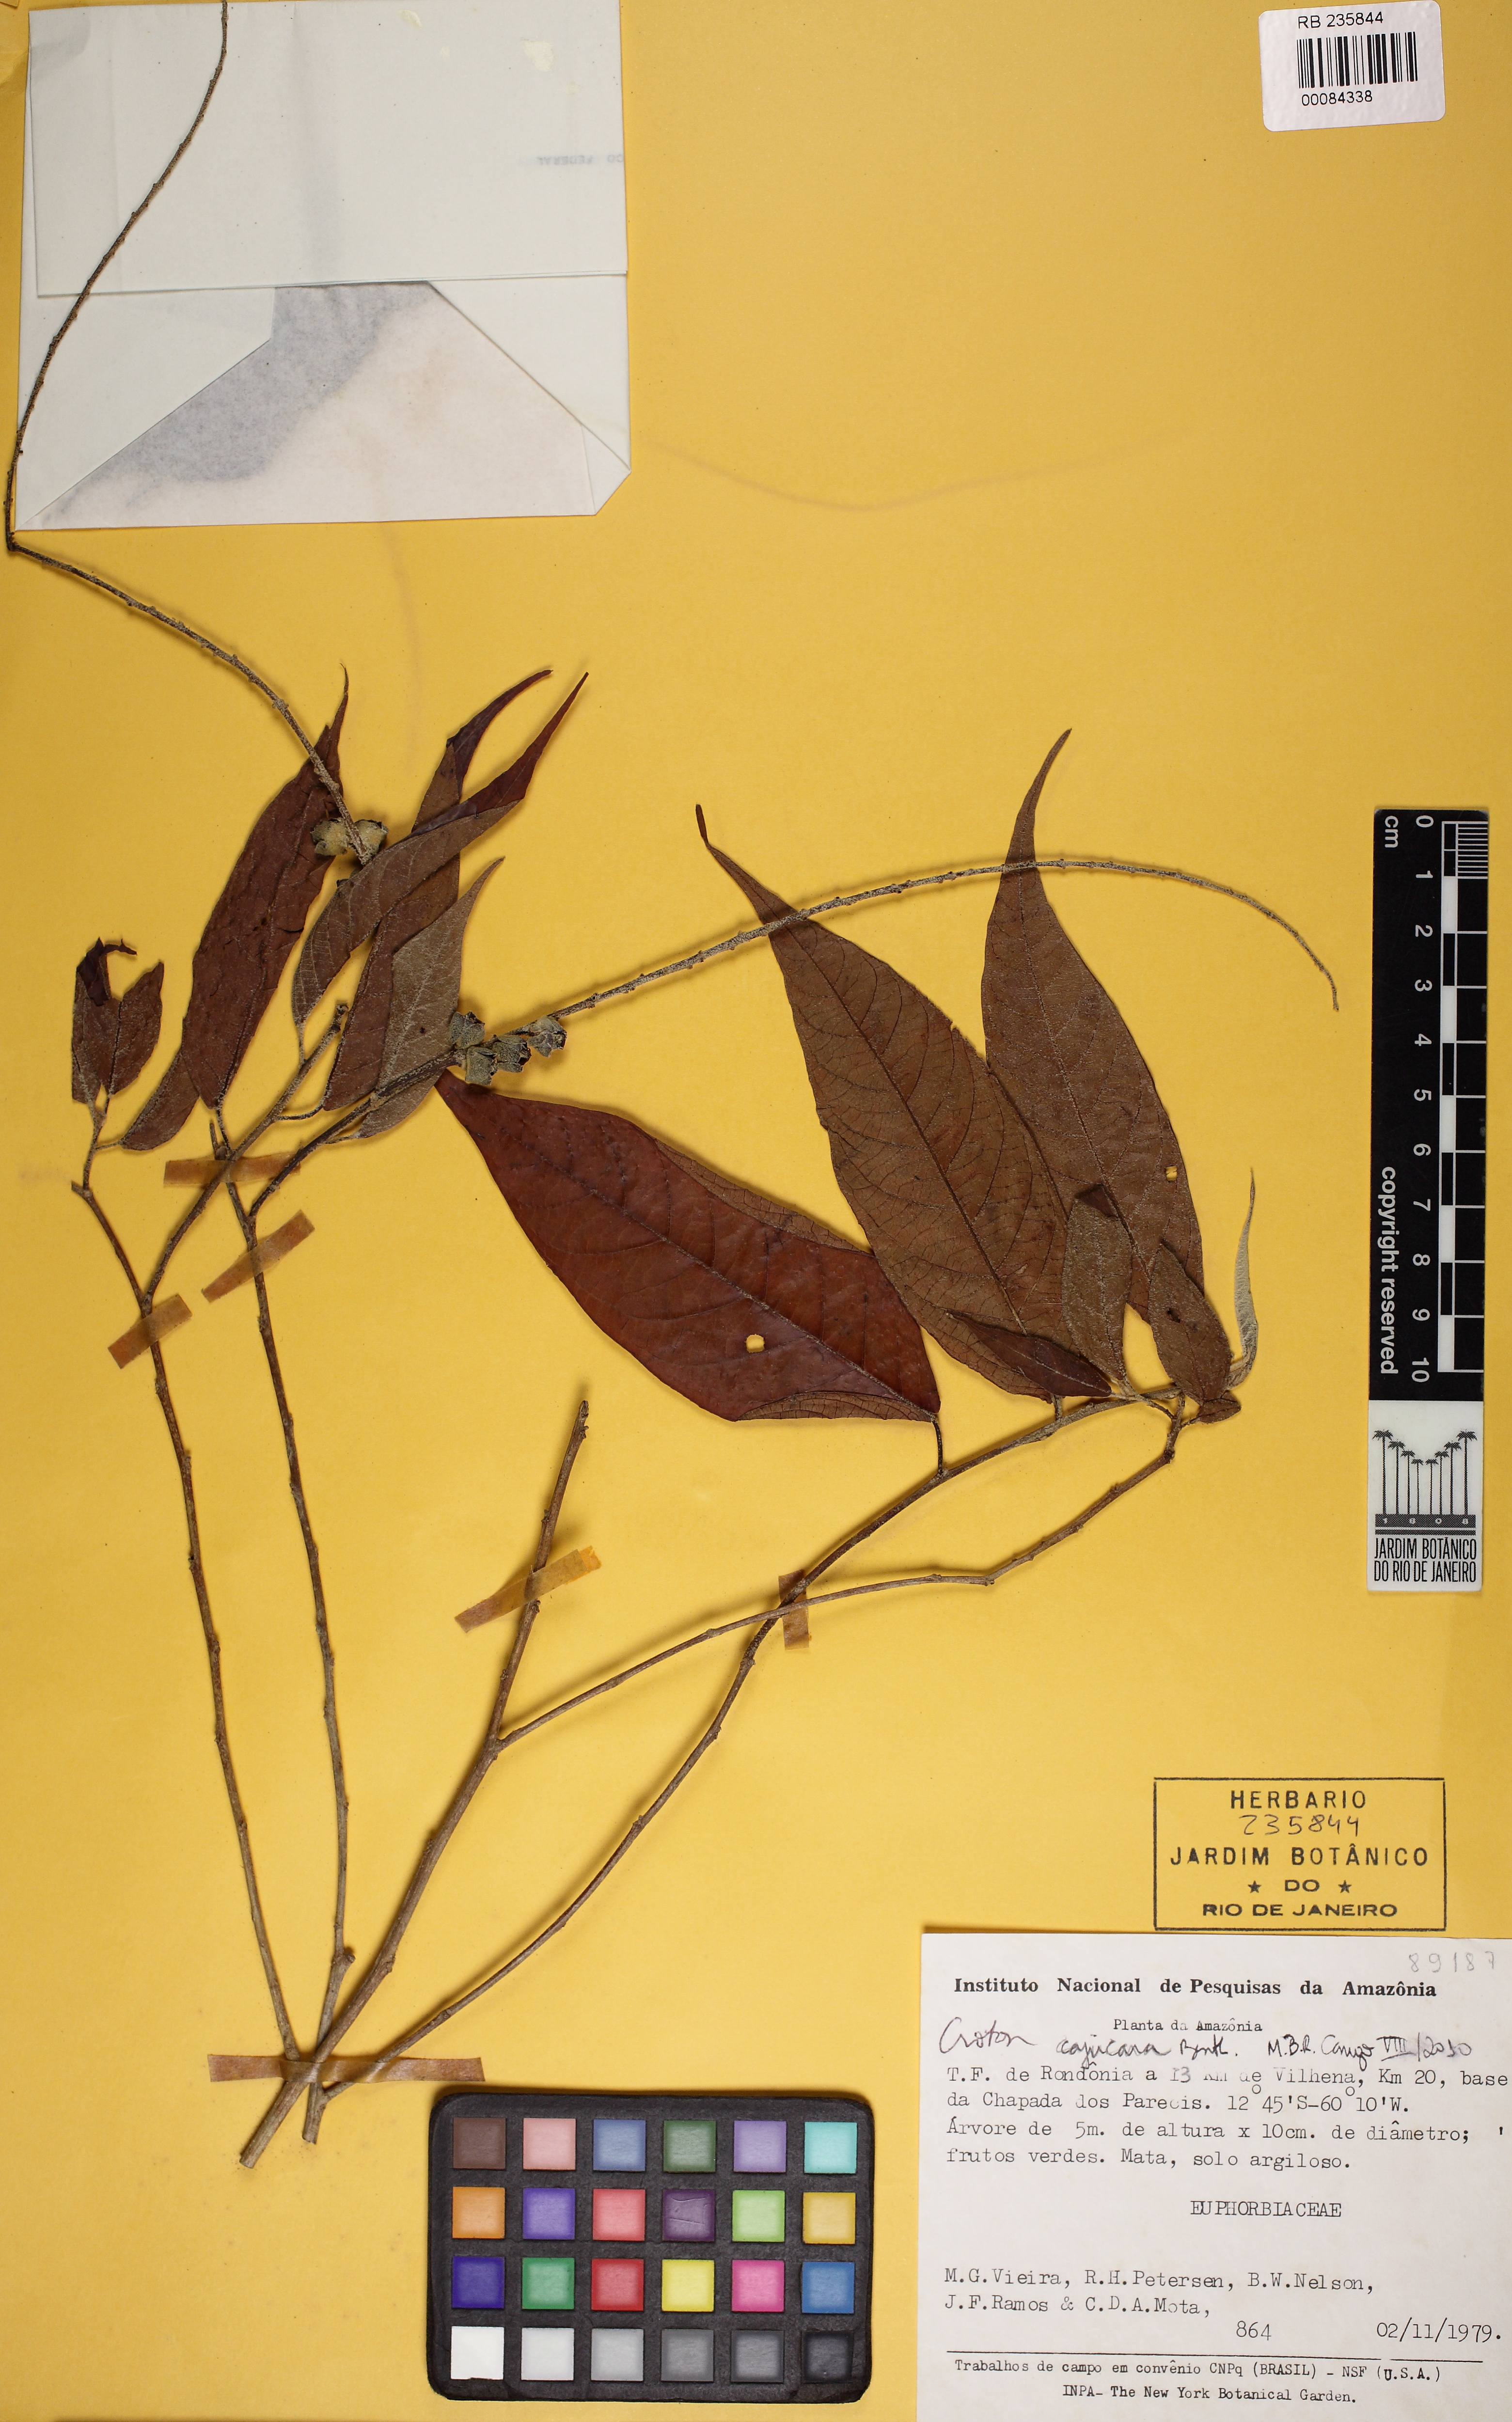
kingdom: Plantae
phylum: Tracheophyta
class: Magnoliopsida
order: Malpighiales
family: Euphorbiaceae
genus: Croton
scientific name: Croton cajucara
